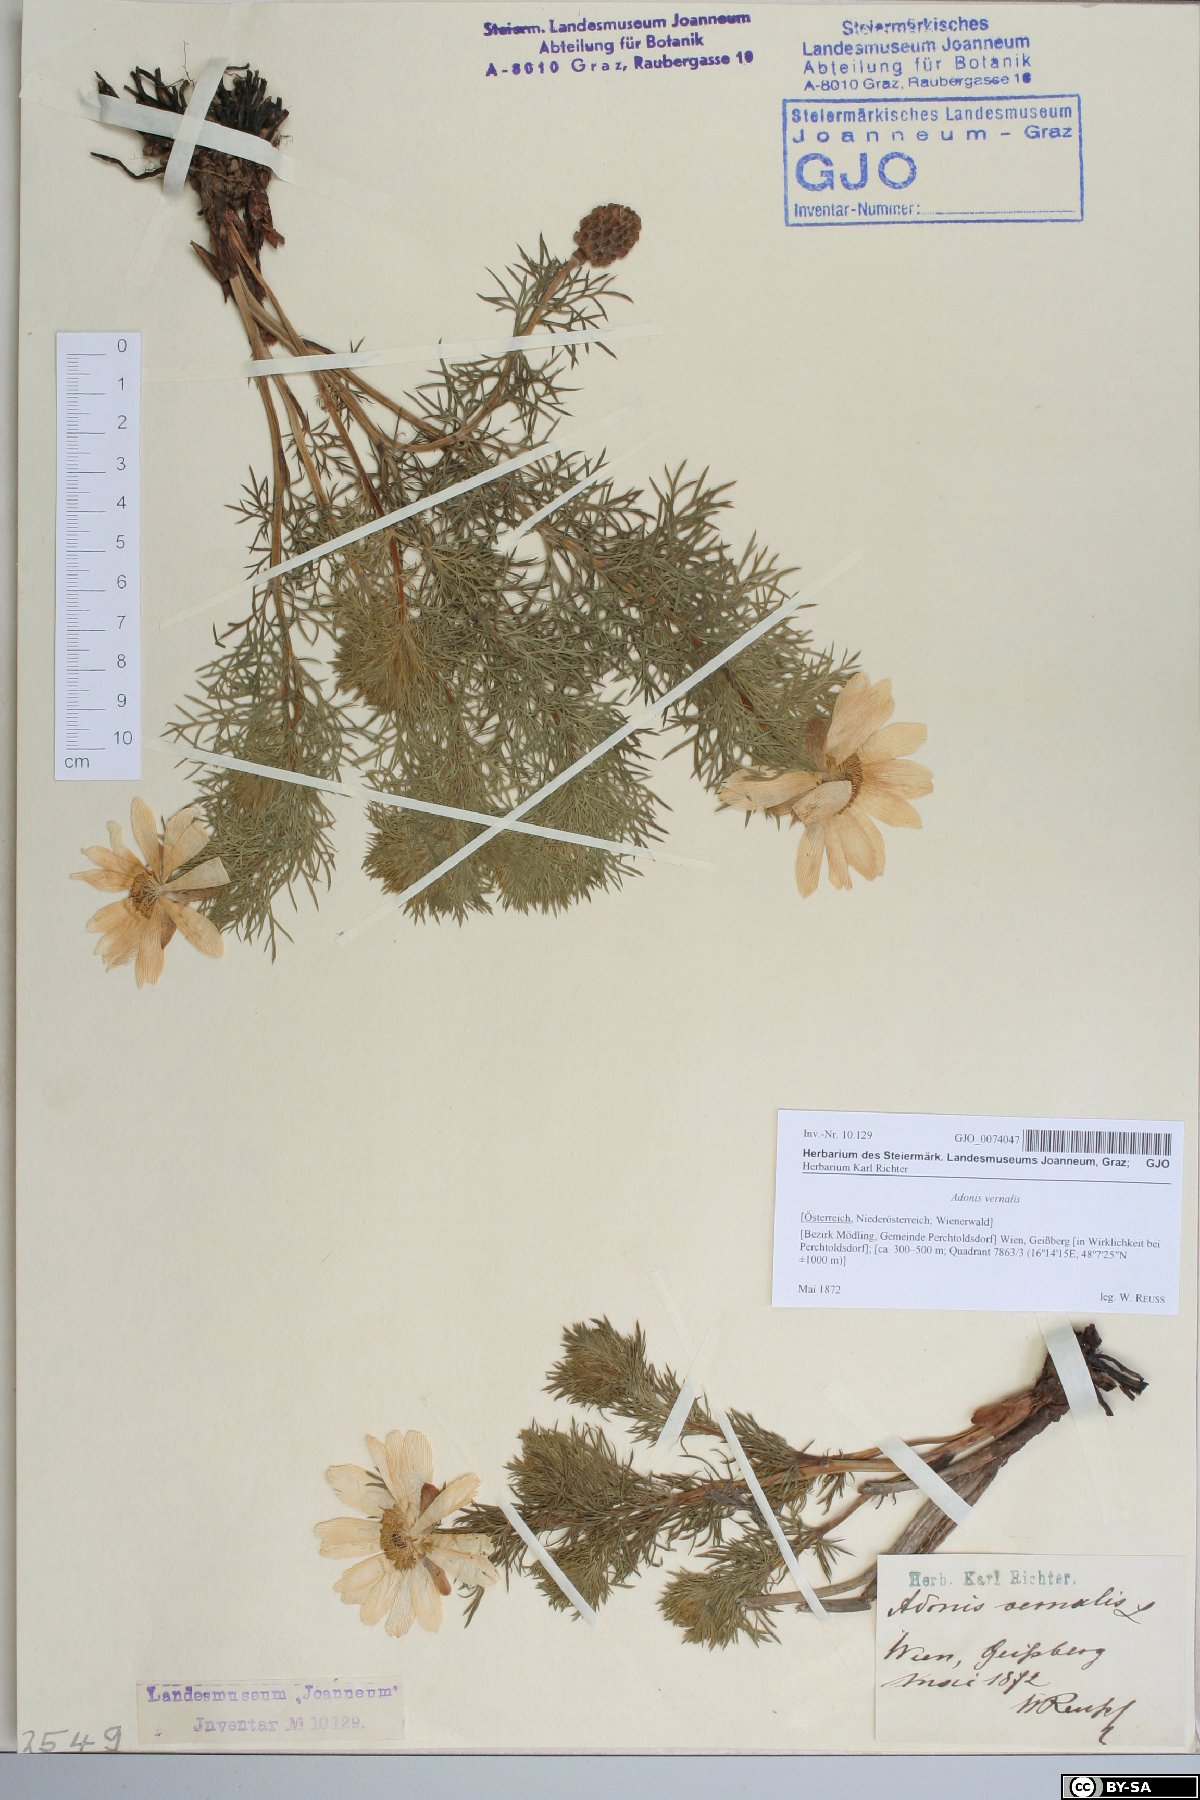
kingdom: Plantae
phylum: Tracheophyta
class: Magnoliopsida
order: Ranunculales
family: Ranunculaceae
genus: Adonis
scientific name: Adonis vernalis
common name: Yellow pheasants-eye
